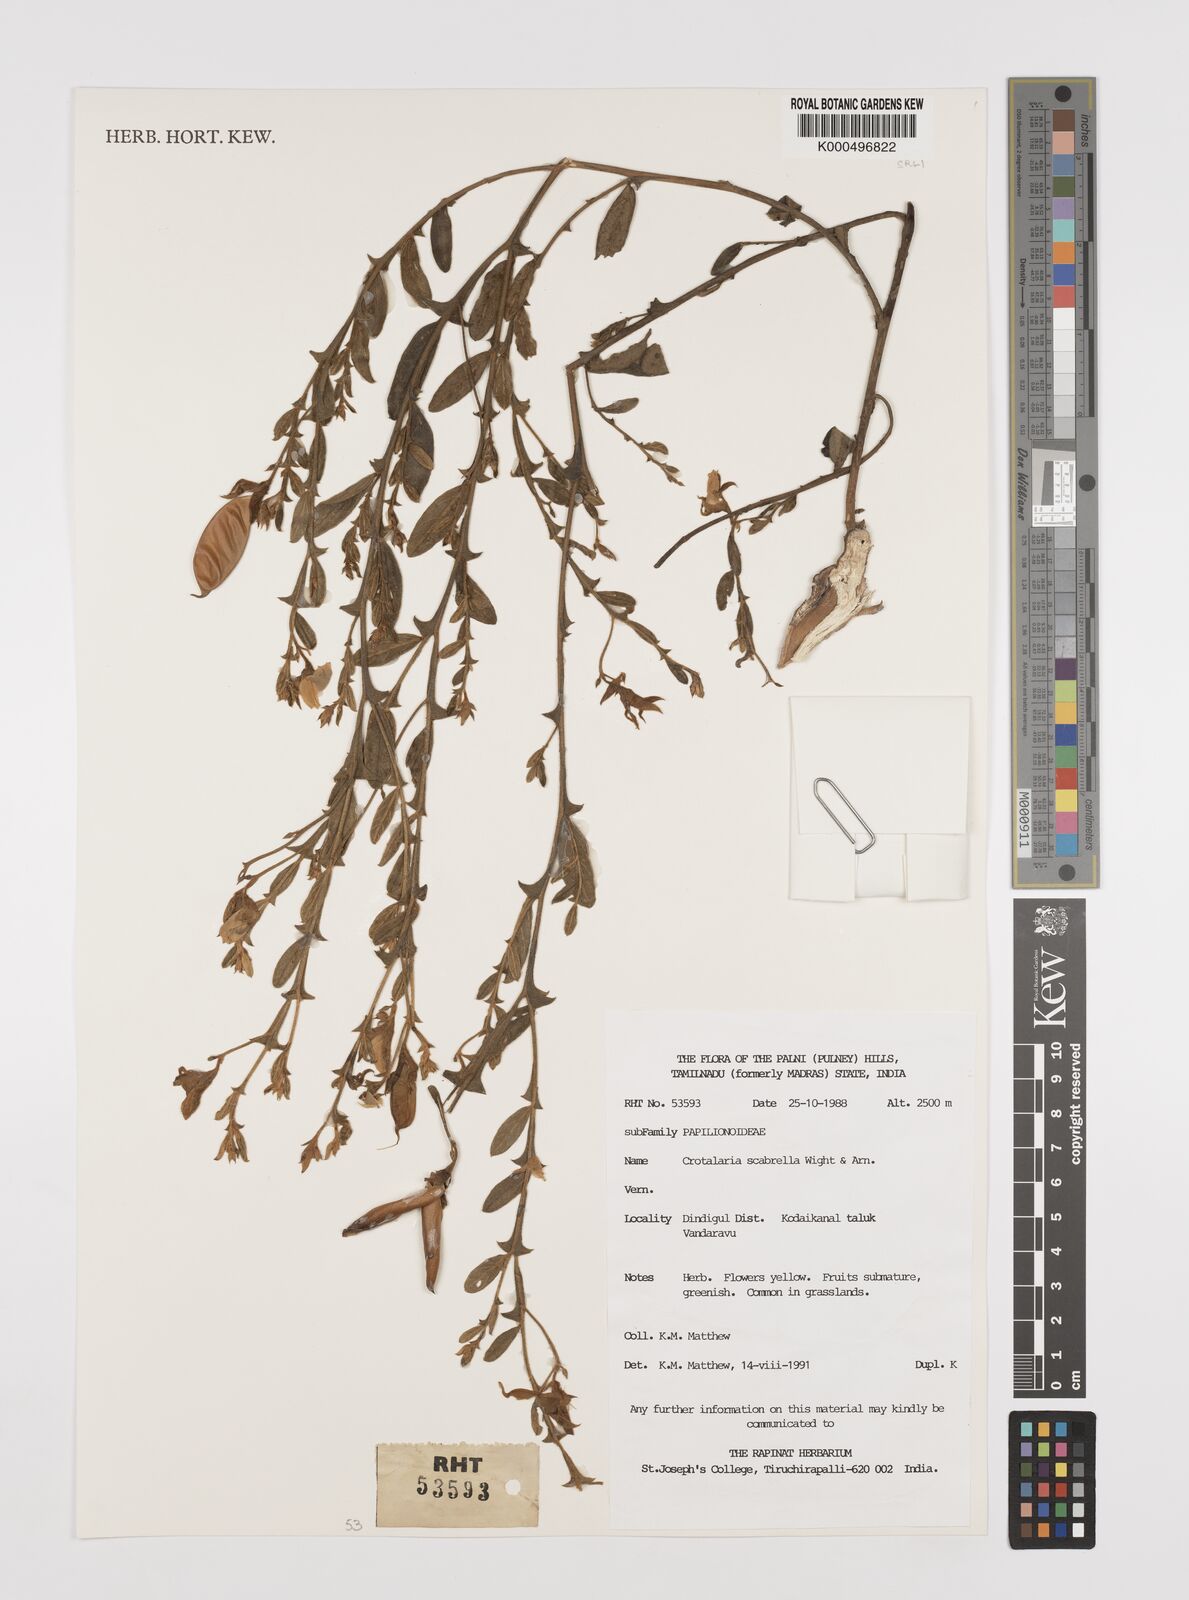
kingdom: Plantae
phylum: Tracheophyta
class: Magnoliopsida
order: Fabales
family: Fabaceae
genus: Crotalaria
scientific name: Crotalaria scabrella
